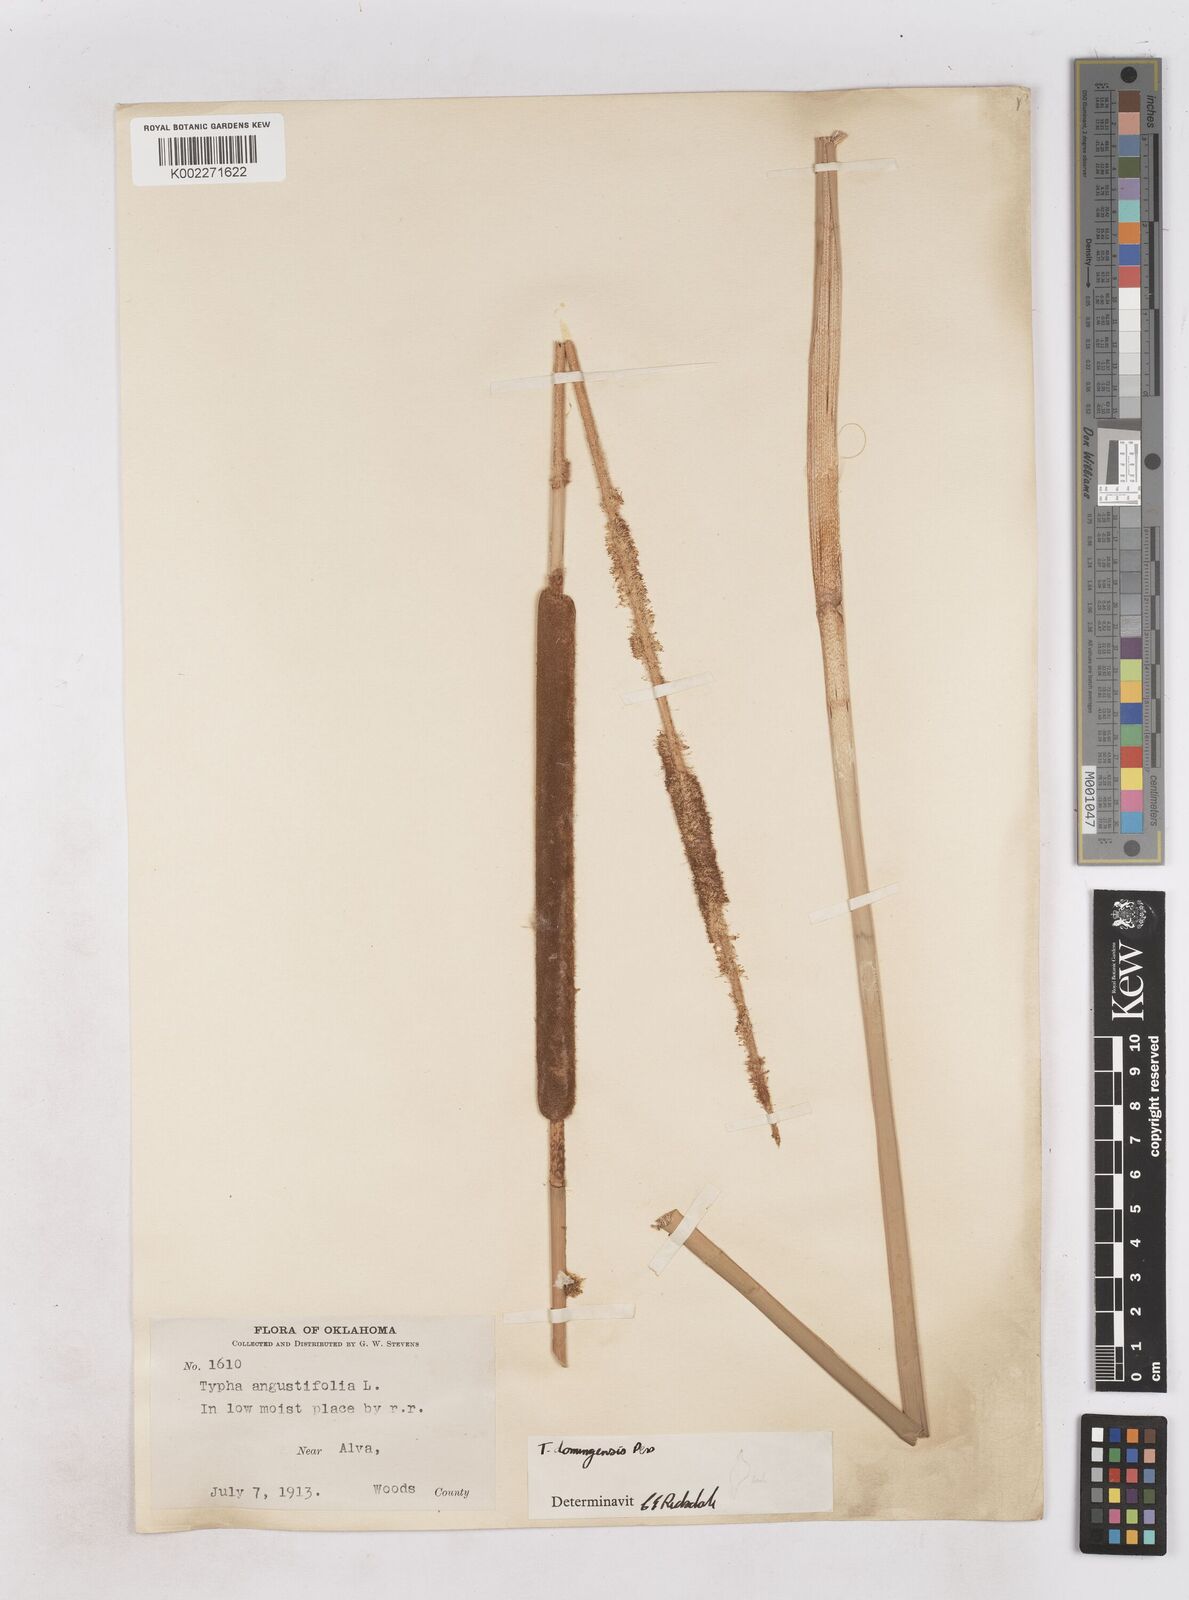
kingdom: Plantae
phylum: Tracheophyta
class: Liliopsida
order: Poales
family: Typhaceae
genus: Typha
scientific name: Typha domingensis
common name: Southern cattail
